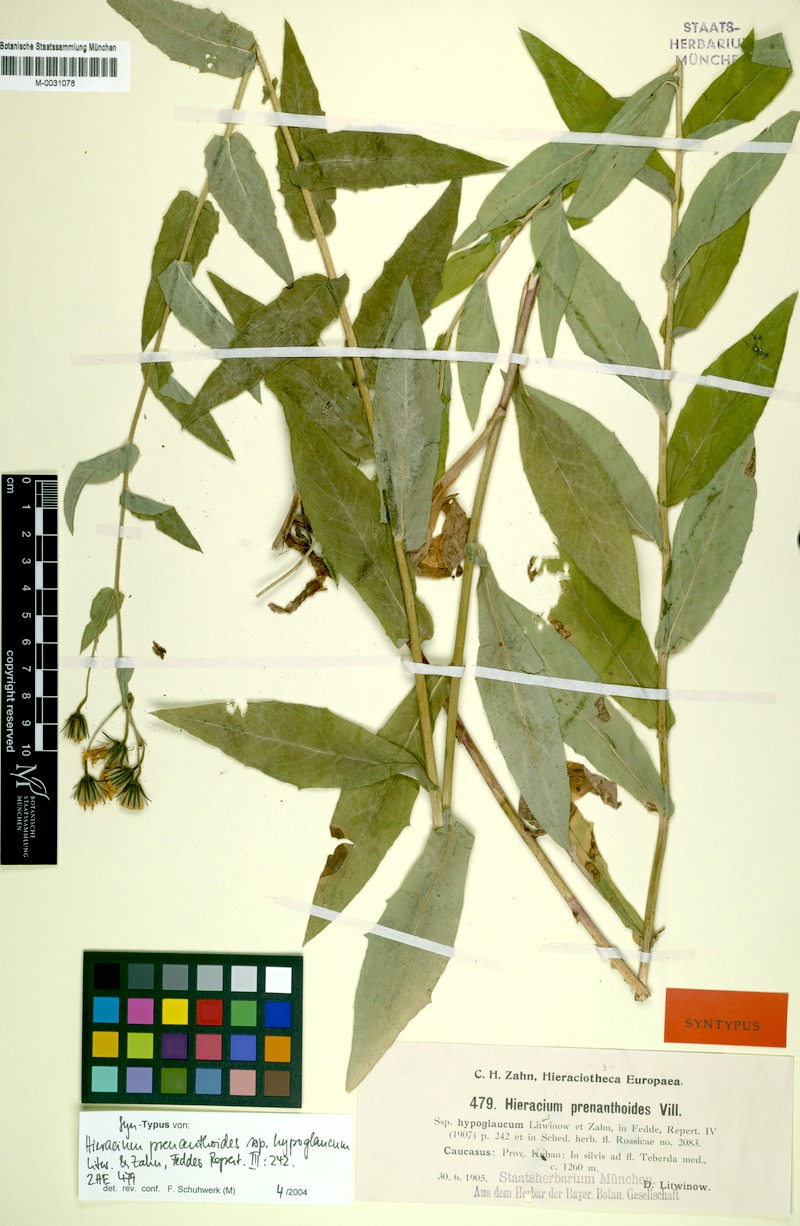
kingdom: Plantae
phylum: Tracheophyta
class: Magnoliopsida
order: Asterales
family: Asteraceae
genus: Hieracium
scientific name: Hieracium prenanthoides
